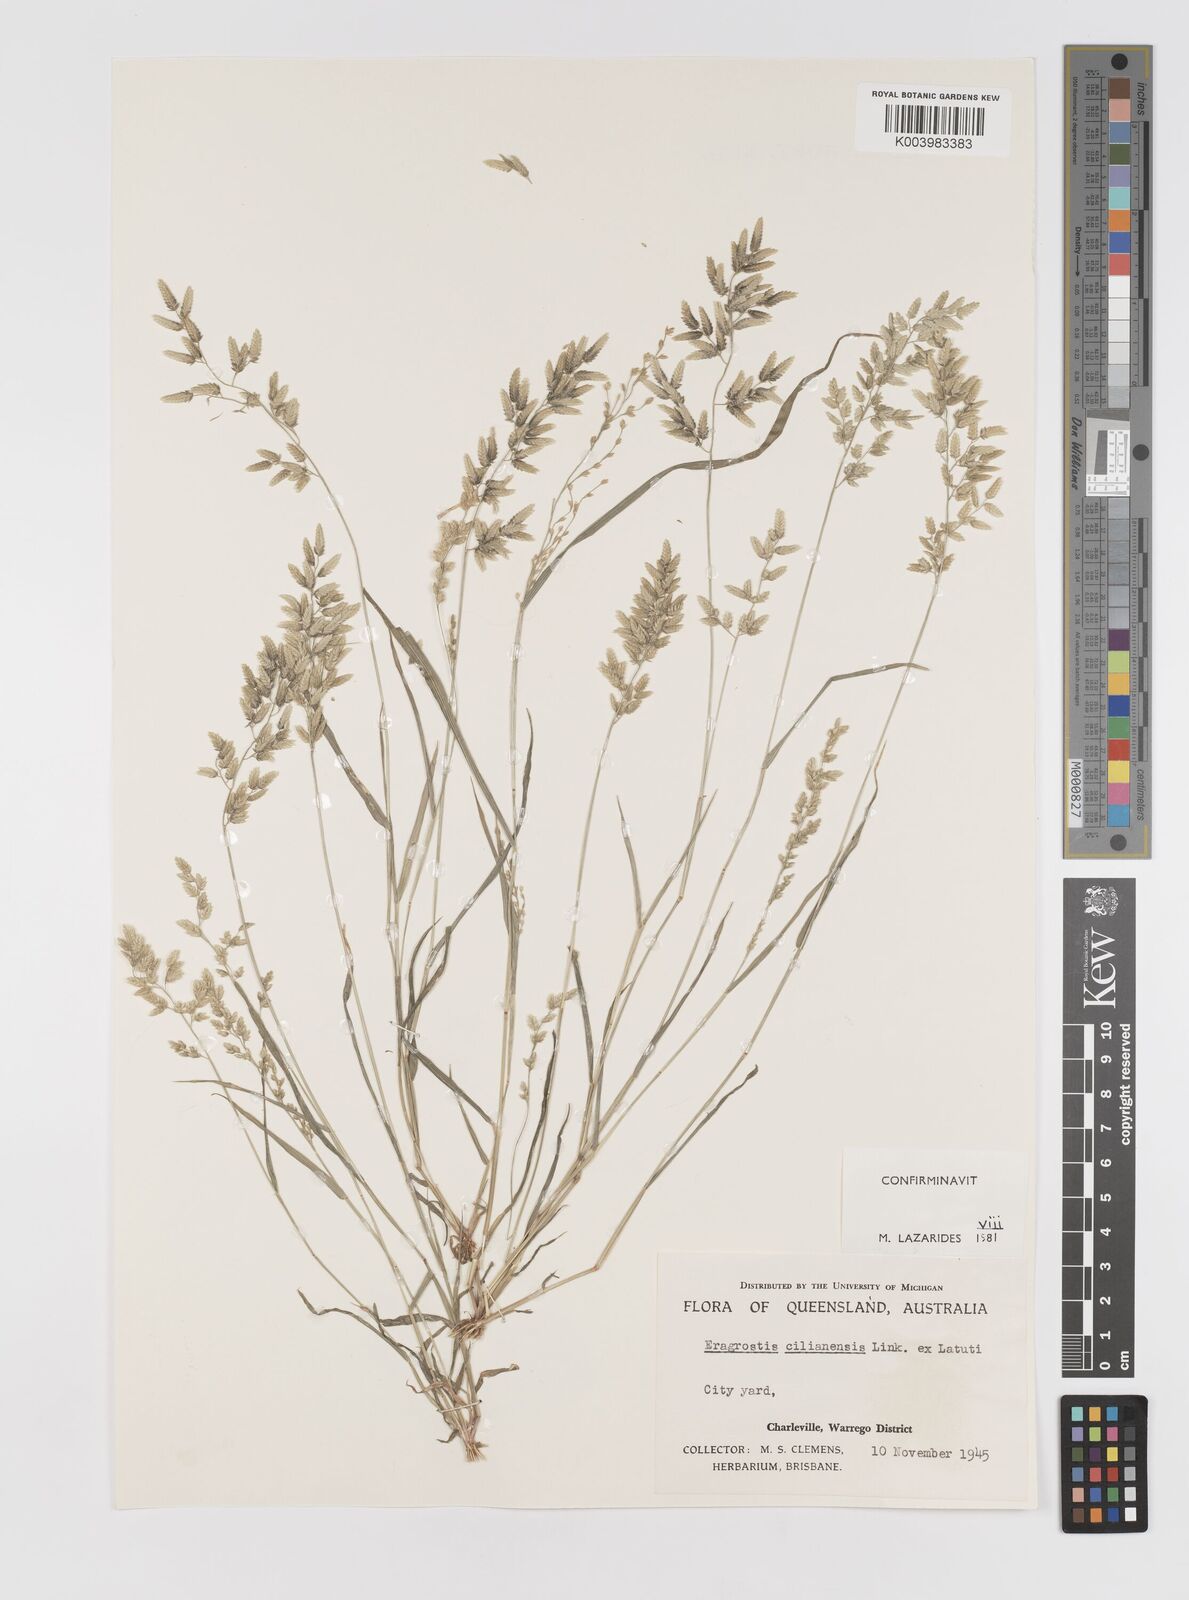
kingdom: Plantae
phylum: Tracheophyta
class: Liliopsida
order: Poales
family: Poaceae
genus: Eragrostis
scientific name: Eragrostis cilianensis
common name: Stinkgrass
